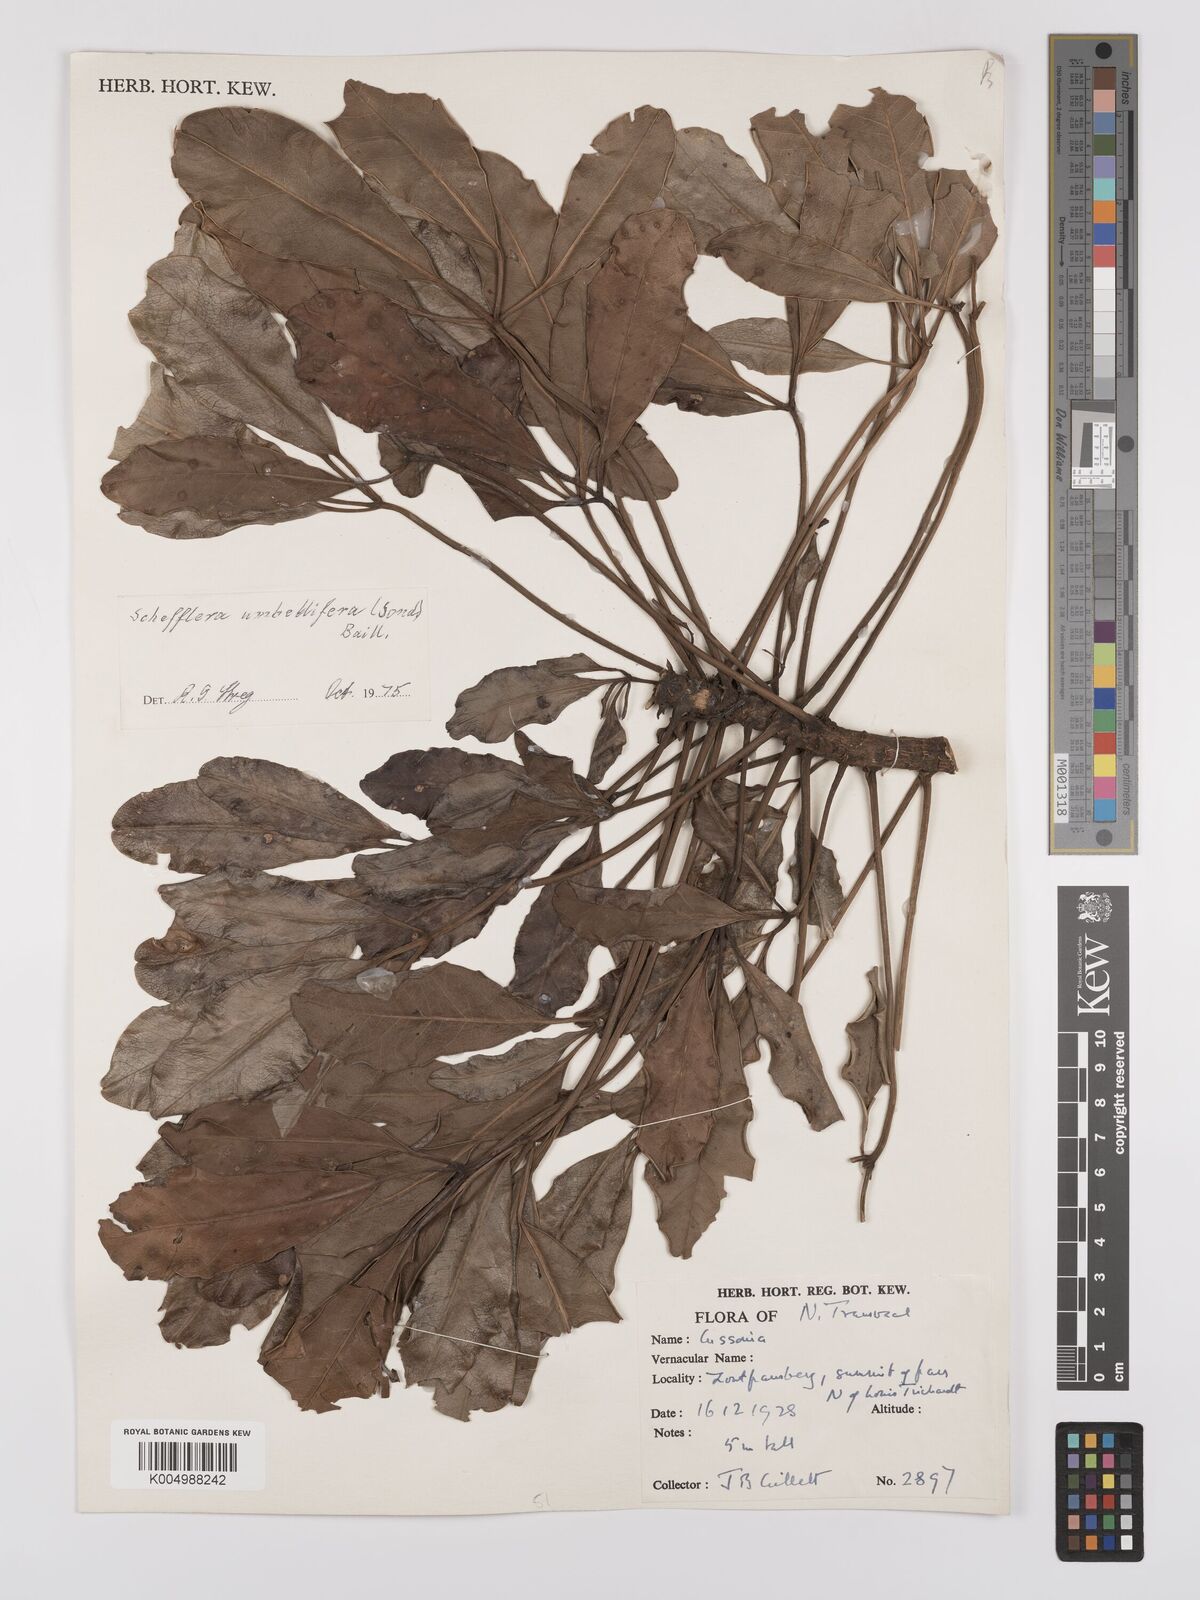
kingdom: Plantae
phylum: Tracheophyta
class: Magnoliopsida
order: Apiales
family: Araliaceae
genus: Neocussonia
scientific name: Neocussonia umbellifera
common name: False cabbage tree
